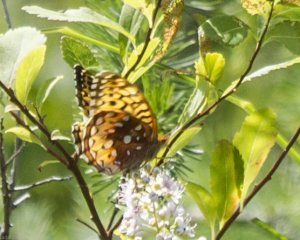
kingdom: Animalia
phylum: Arthropoda
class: Insecta
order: Lepidoptera
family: Nymphalidae
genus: Speyeria
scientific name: Speyeria cybele
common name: Great Spangled Fritillary
